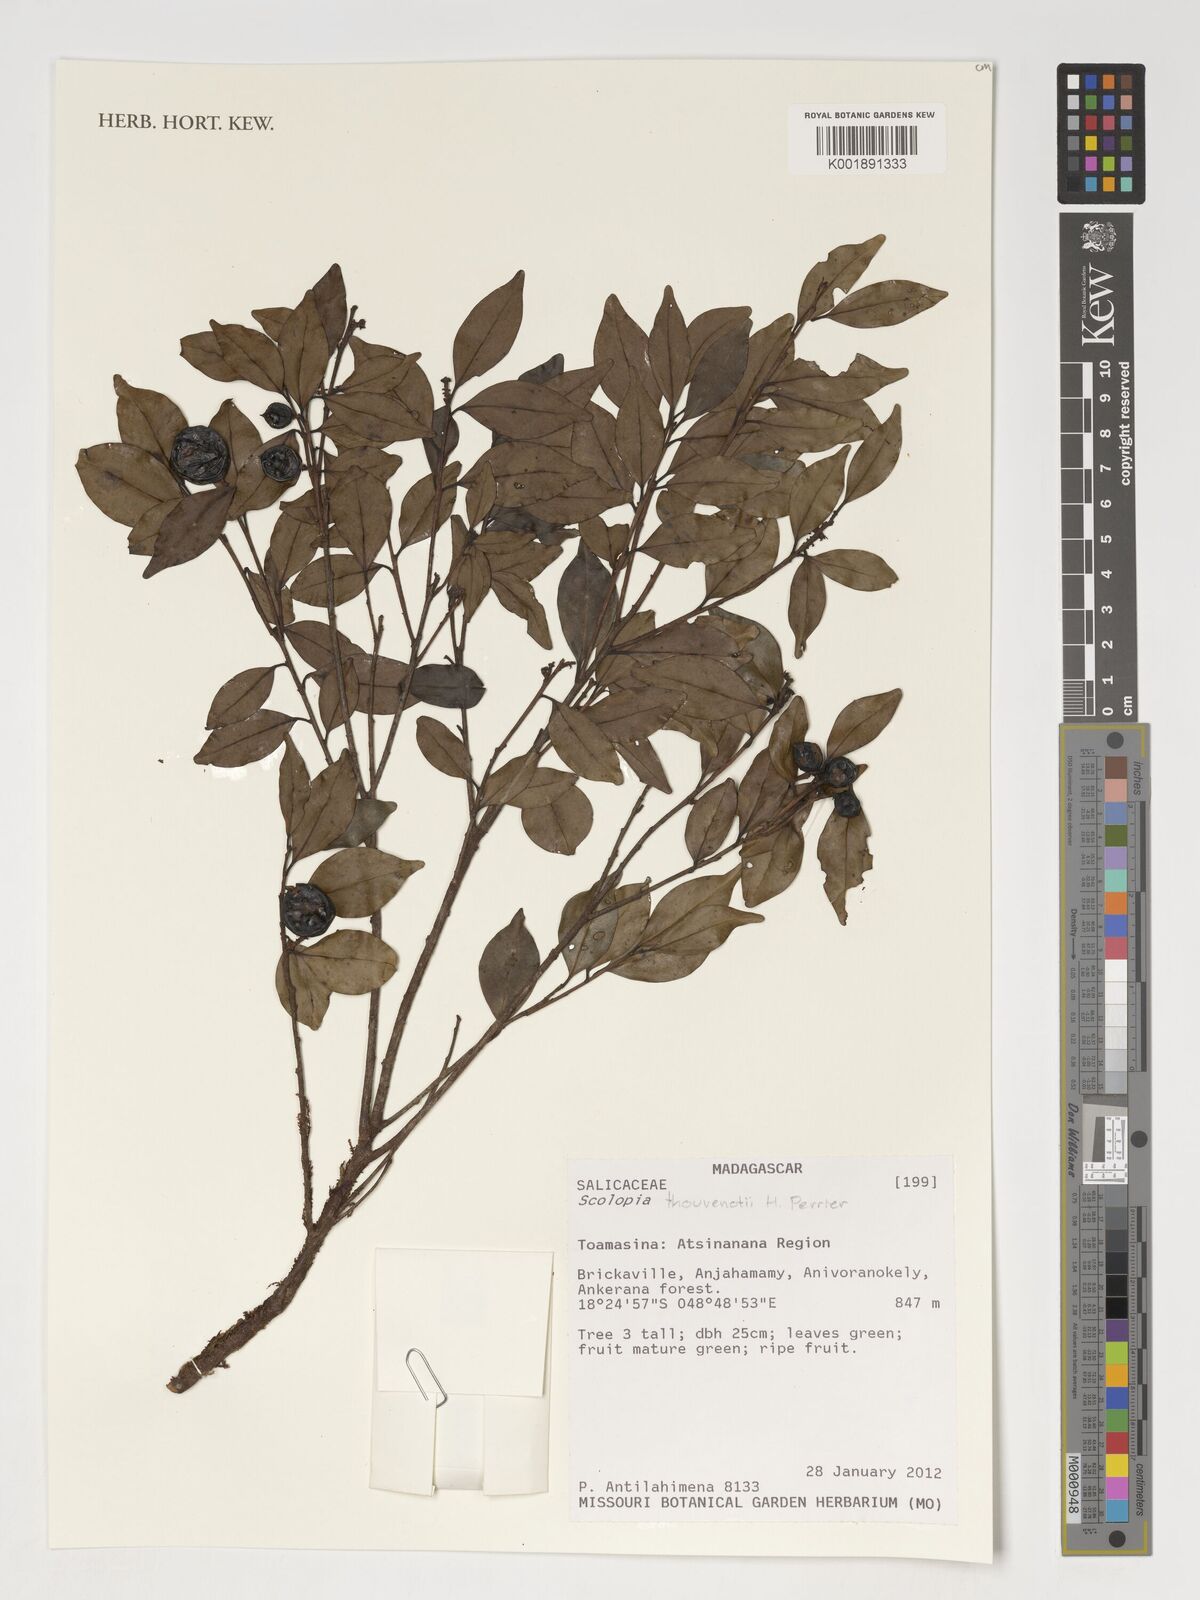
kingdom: Plantae
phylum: Tracheophyta
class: Magnoliopsida
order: Malpighiales
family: Salicaceae
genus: Scolopia
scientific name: Scolopia thouvenotii
